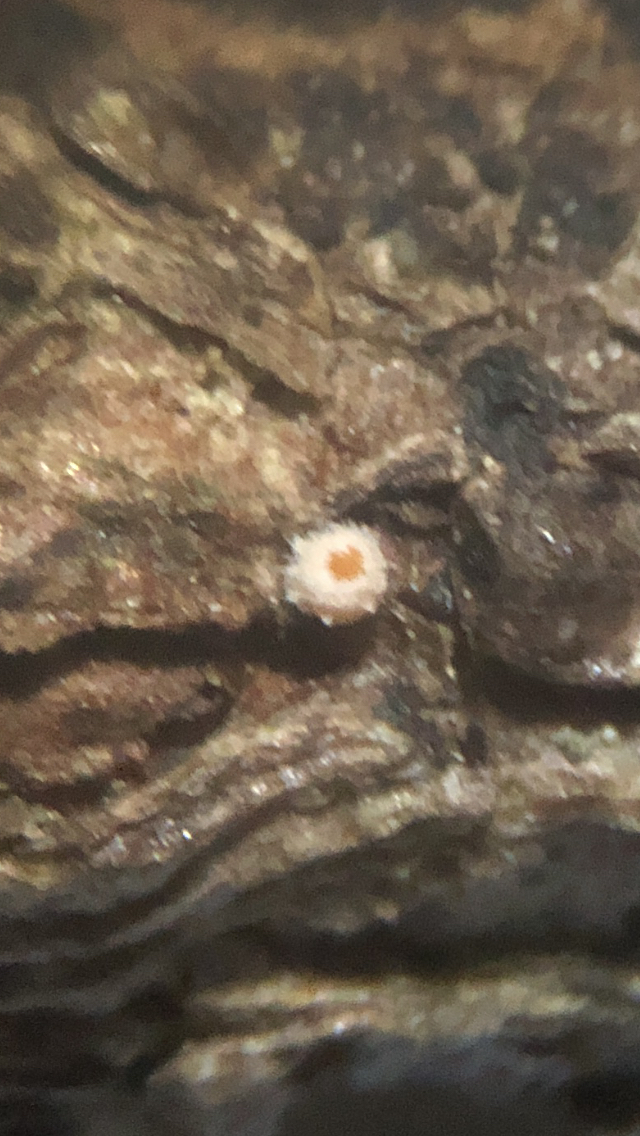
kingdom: Fungi
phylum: Ascomycota
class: Leotiomycetes
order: Helotiales
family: Lachnaceae
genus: Lachnellula
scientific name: Lachnellula occidentalis
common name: Larch disco
